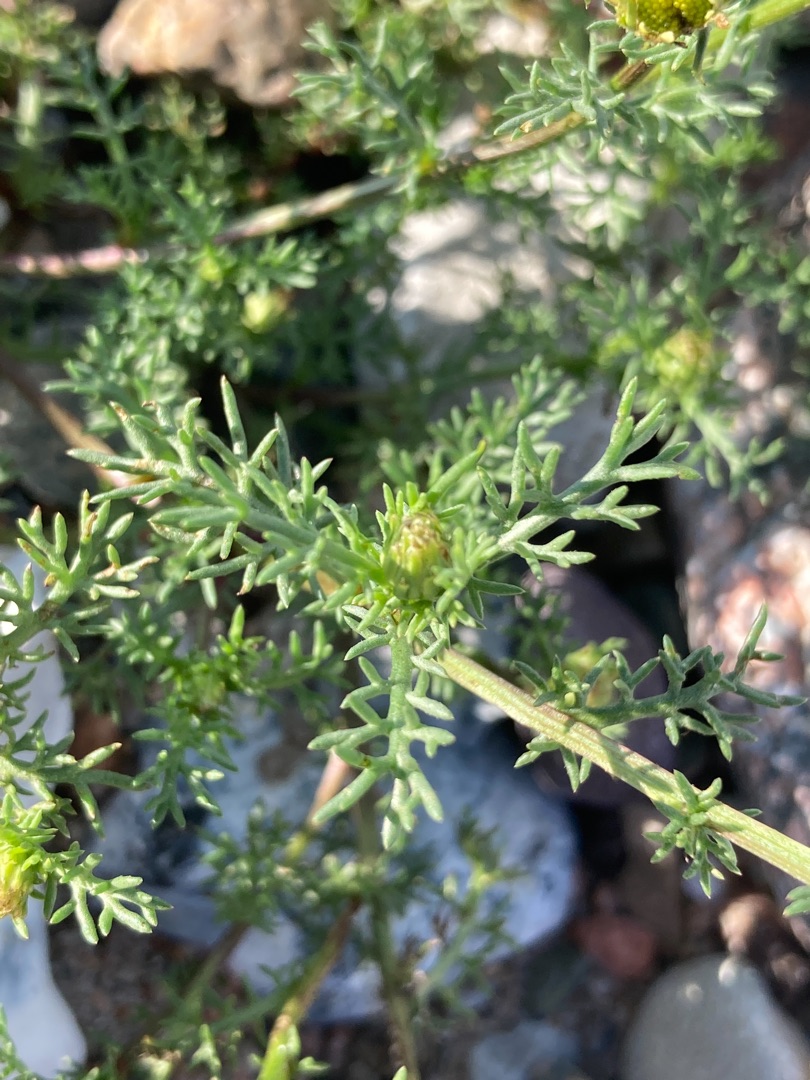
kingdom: Plantae
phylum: Tracheophyta
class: Magnoliopsida
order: Asterales
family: Asteraceae
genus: Tripleurospermum
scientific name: Tripleurospermum maritimum
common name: Strand-kamille
